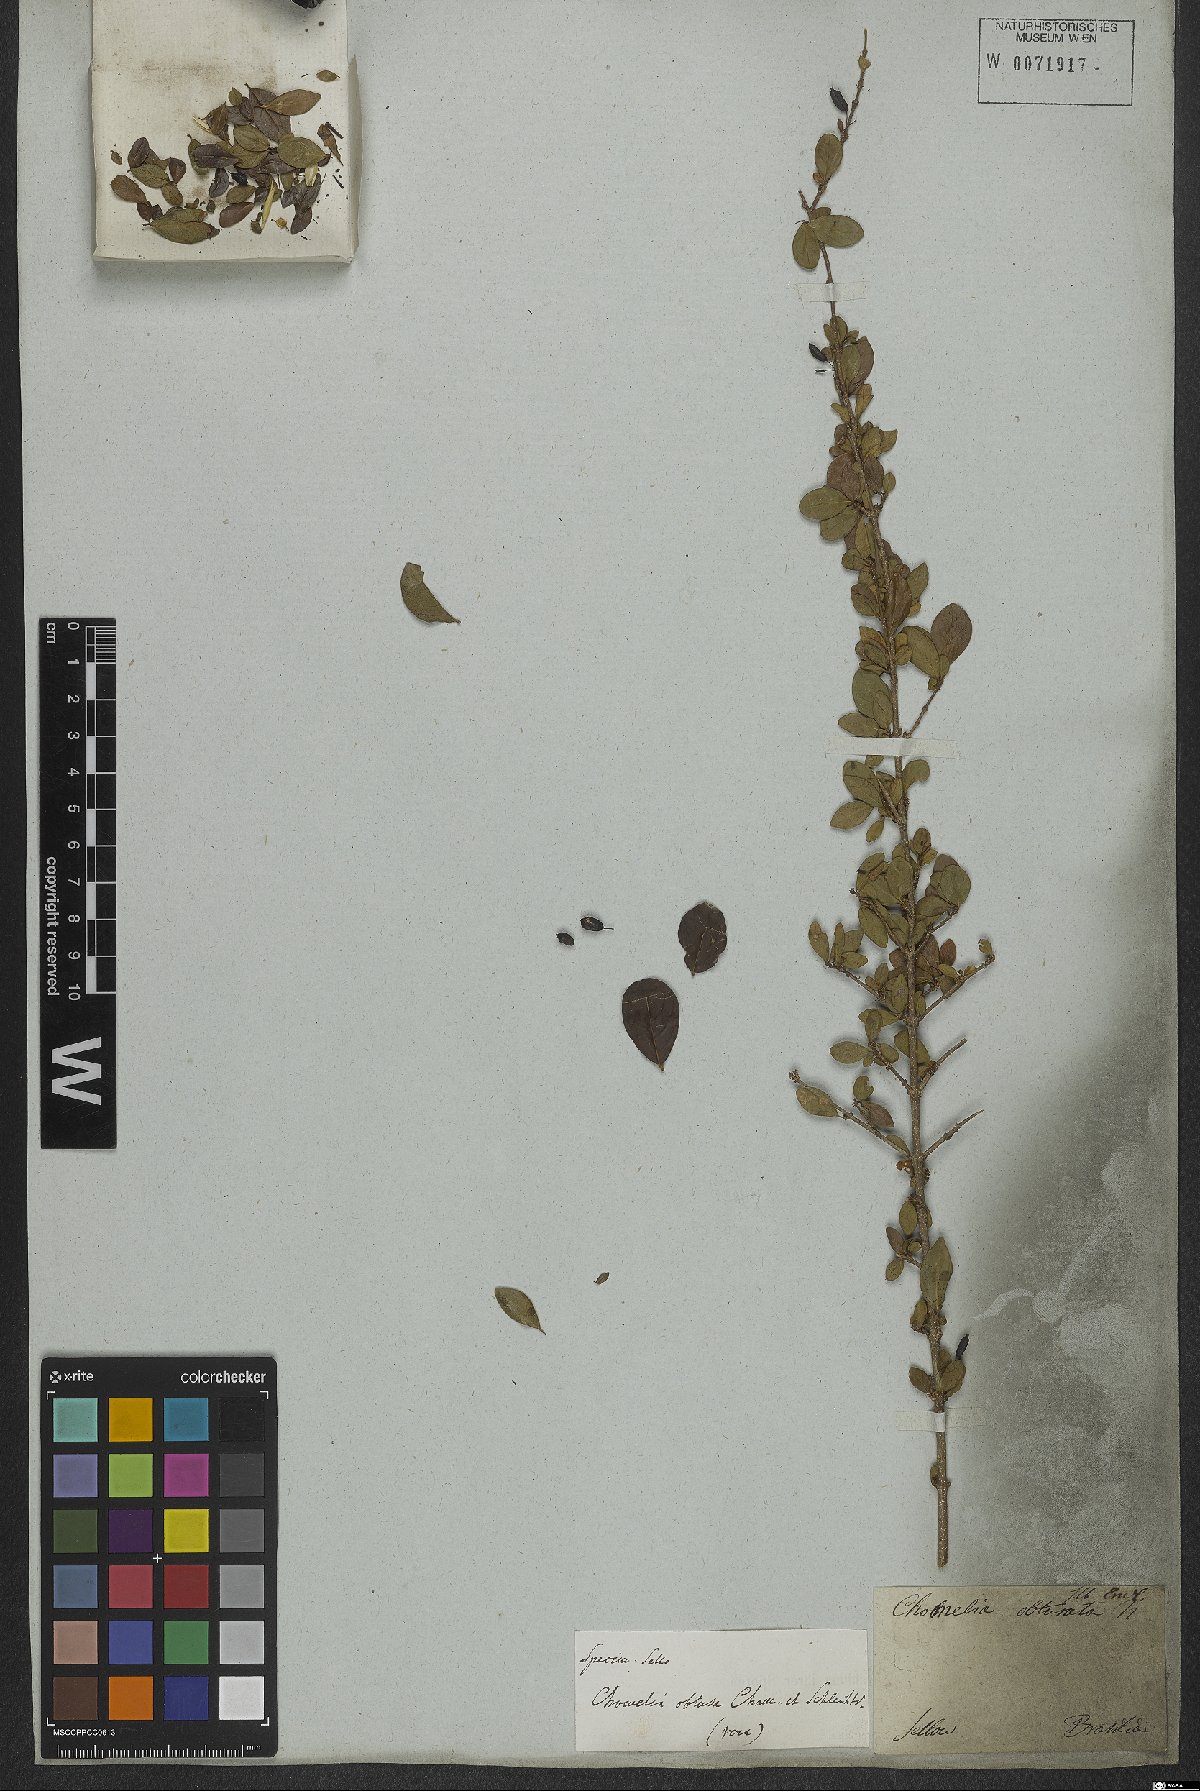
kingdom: Plantae
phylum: Tracheophyta
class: Magnoliopsida
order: Gentianales
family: Rubiaceae
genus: Chomelia
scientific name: Chomelia obtusa
